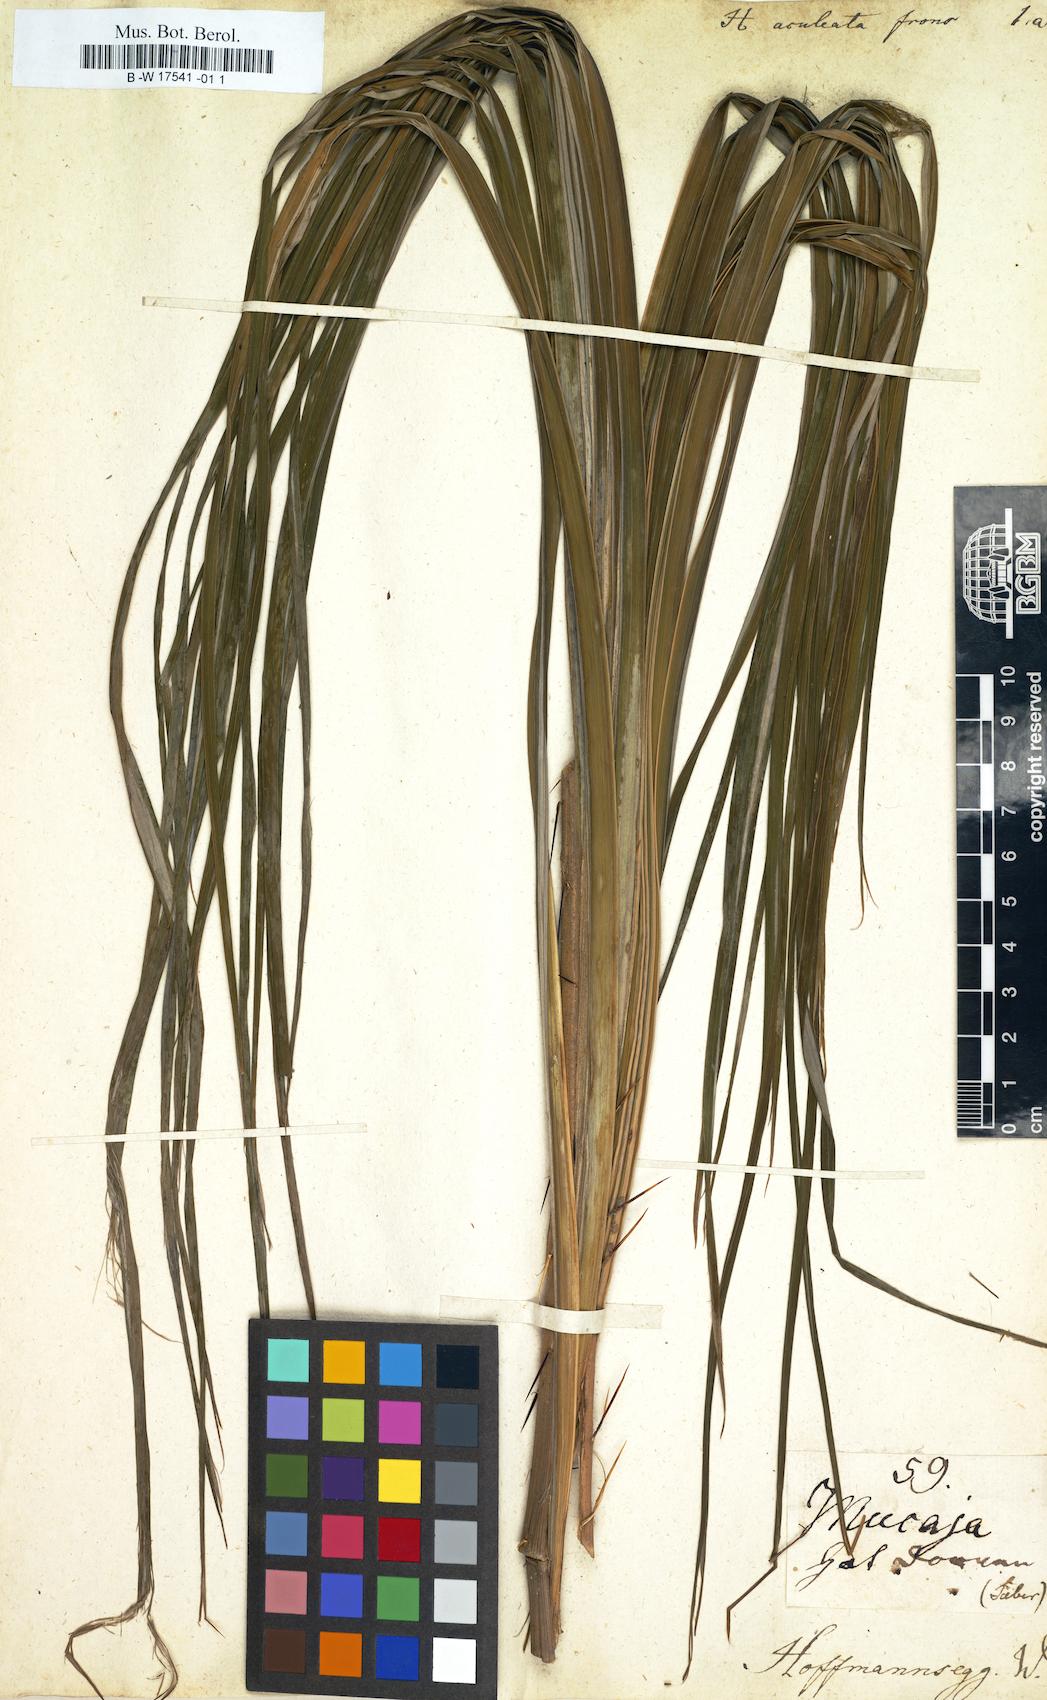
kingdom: Plantae
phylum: Tracheophyta
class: Magnoliopsida
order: Malpighiales
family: Euphorbiaceae
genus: Homonoia
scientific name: Homonoia
